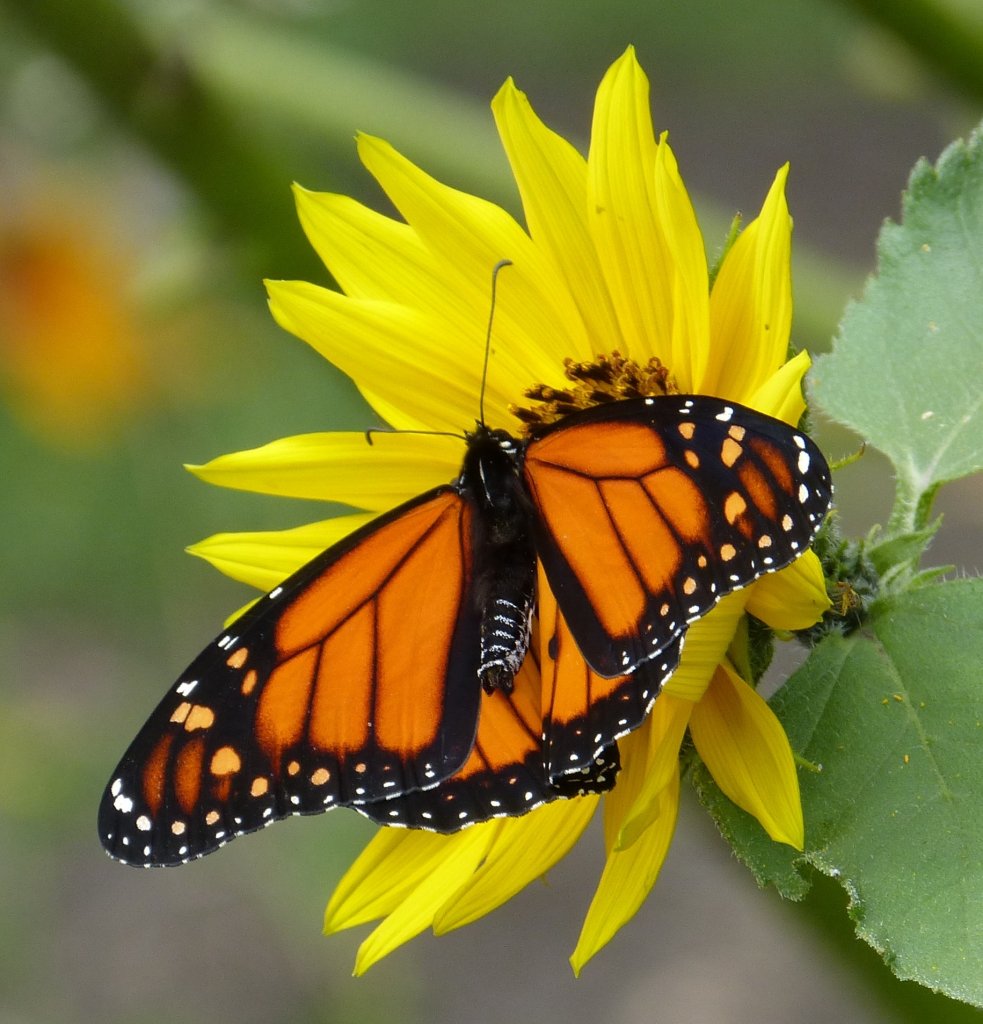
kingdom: Animalia
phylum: Arthropoda
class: Insecta
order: Lepidoptera
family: Nymphalidae
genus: Danaus
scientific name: Danaus plexippus
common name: Monarch
